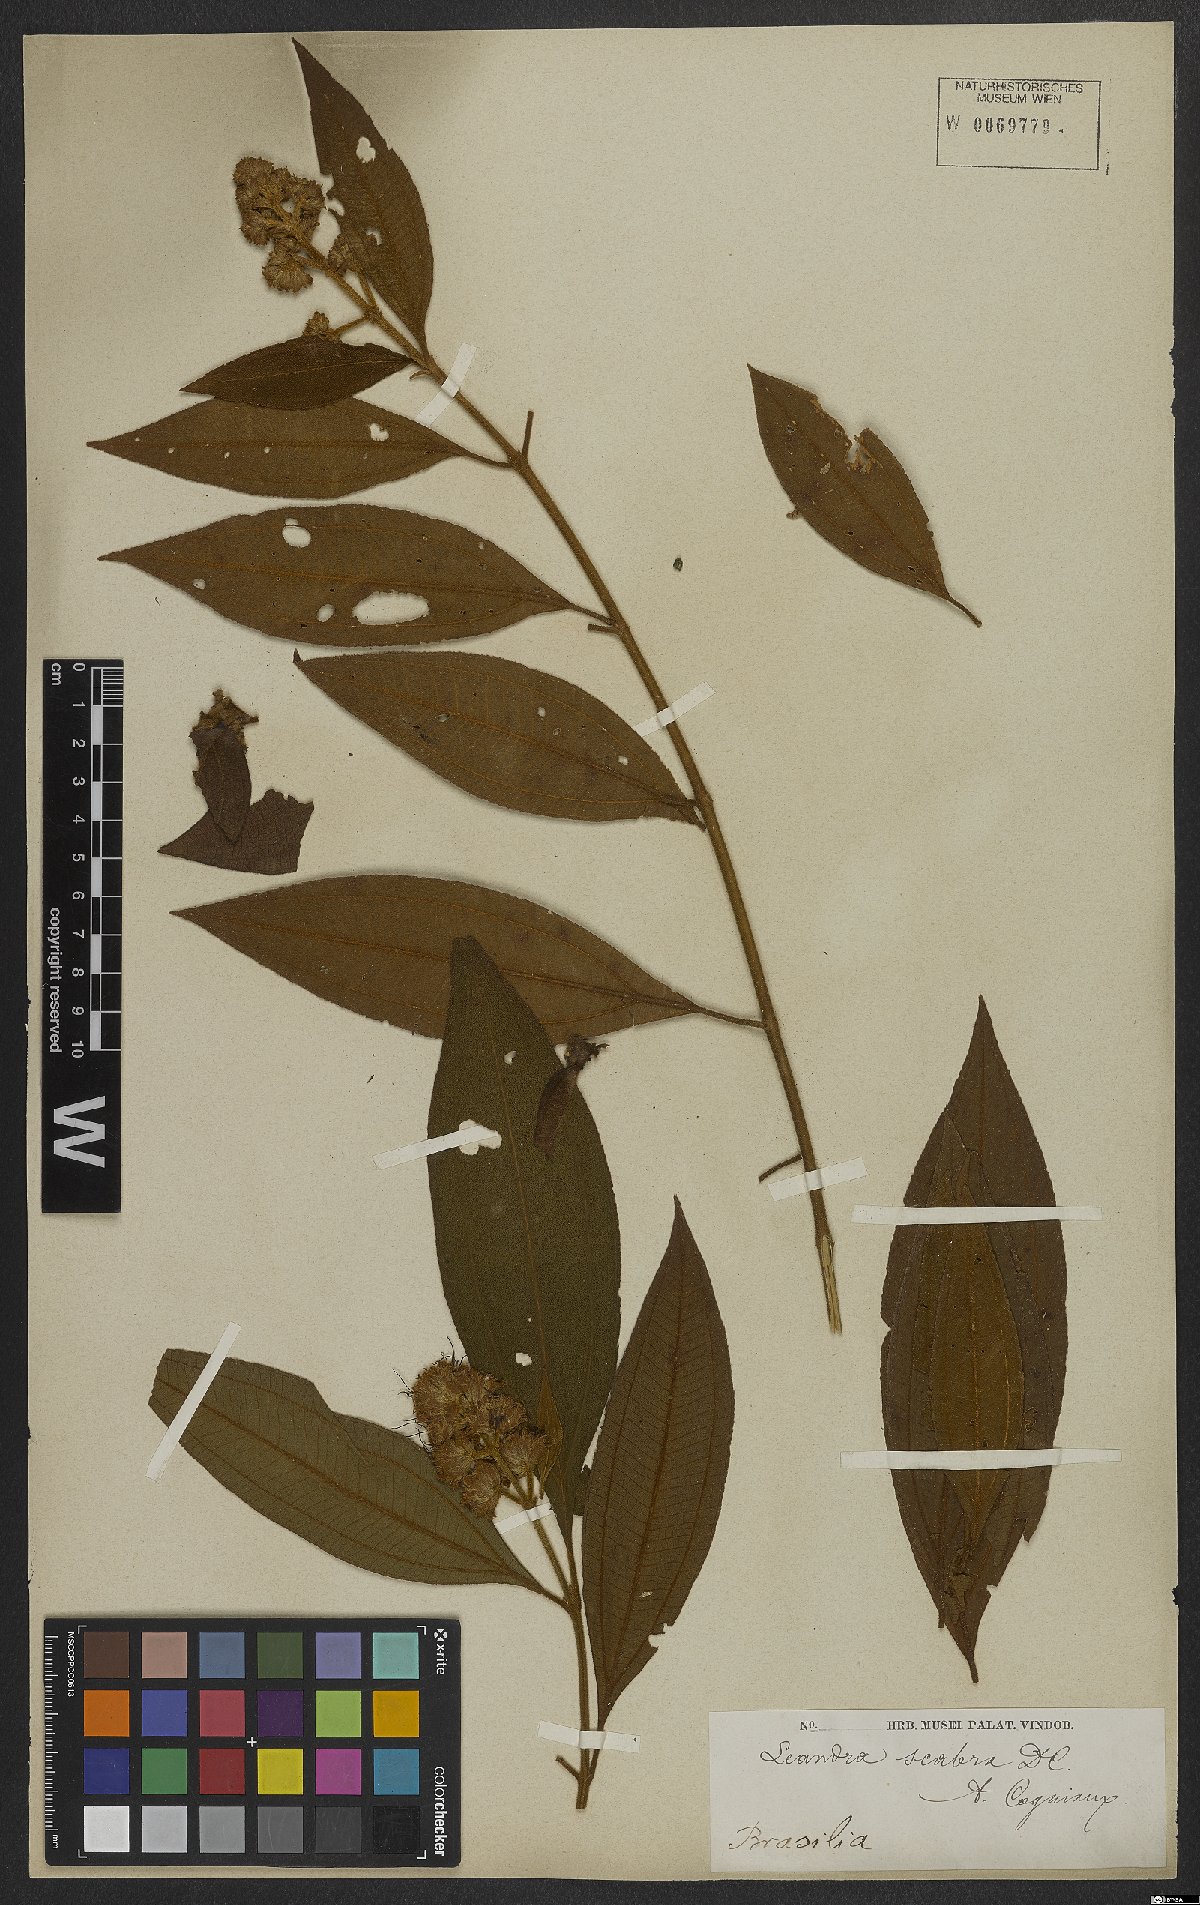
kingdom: Plantae
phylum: Tracheophyta
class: Magnoliopsida
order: Myrtales
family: Melastomataceae
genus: Miconia
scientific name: Miconia melastomoides
